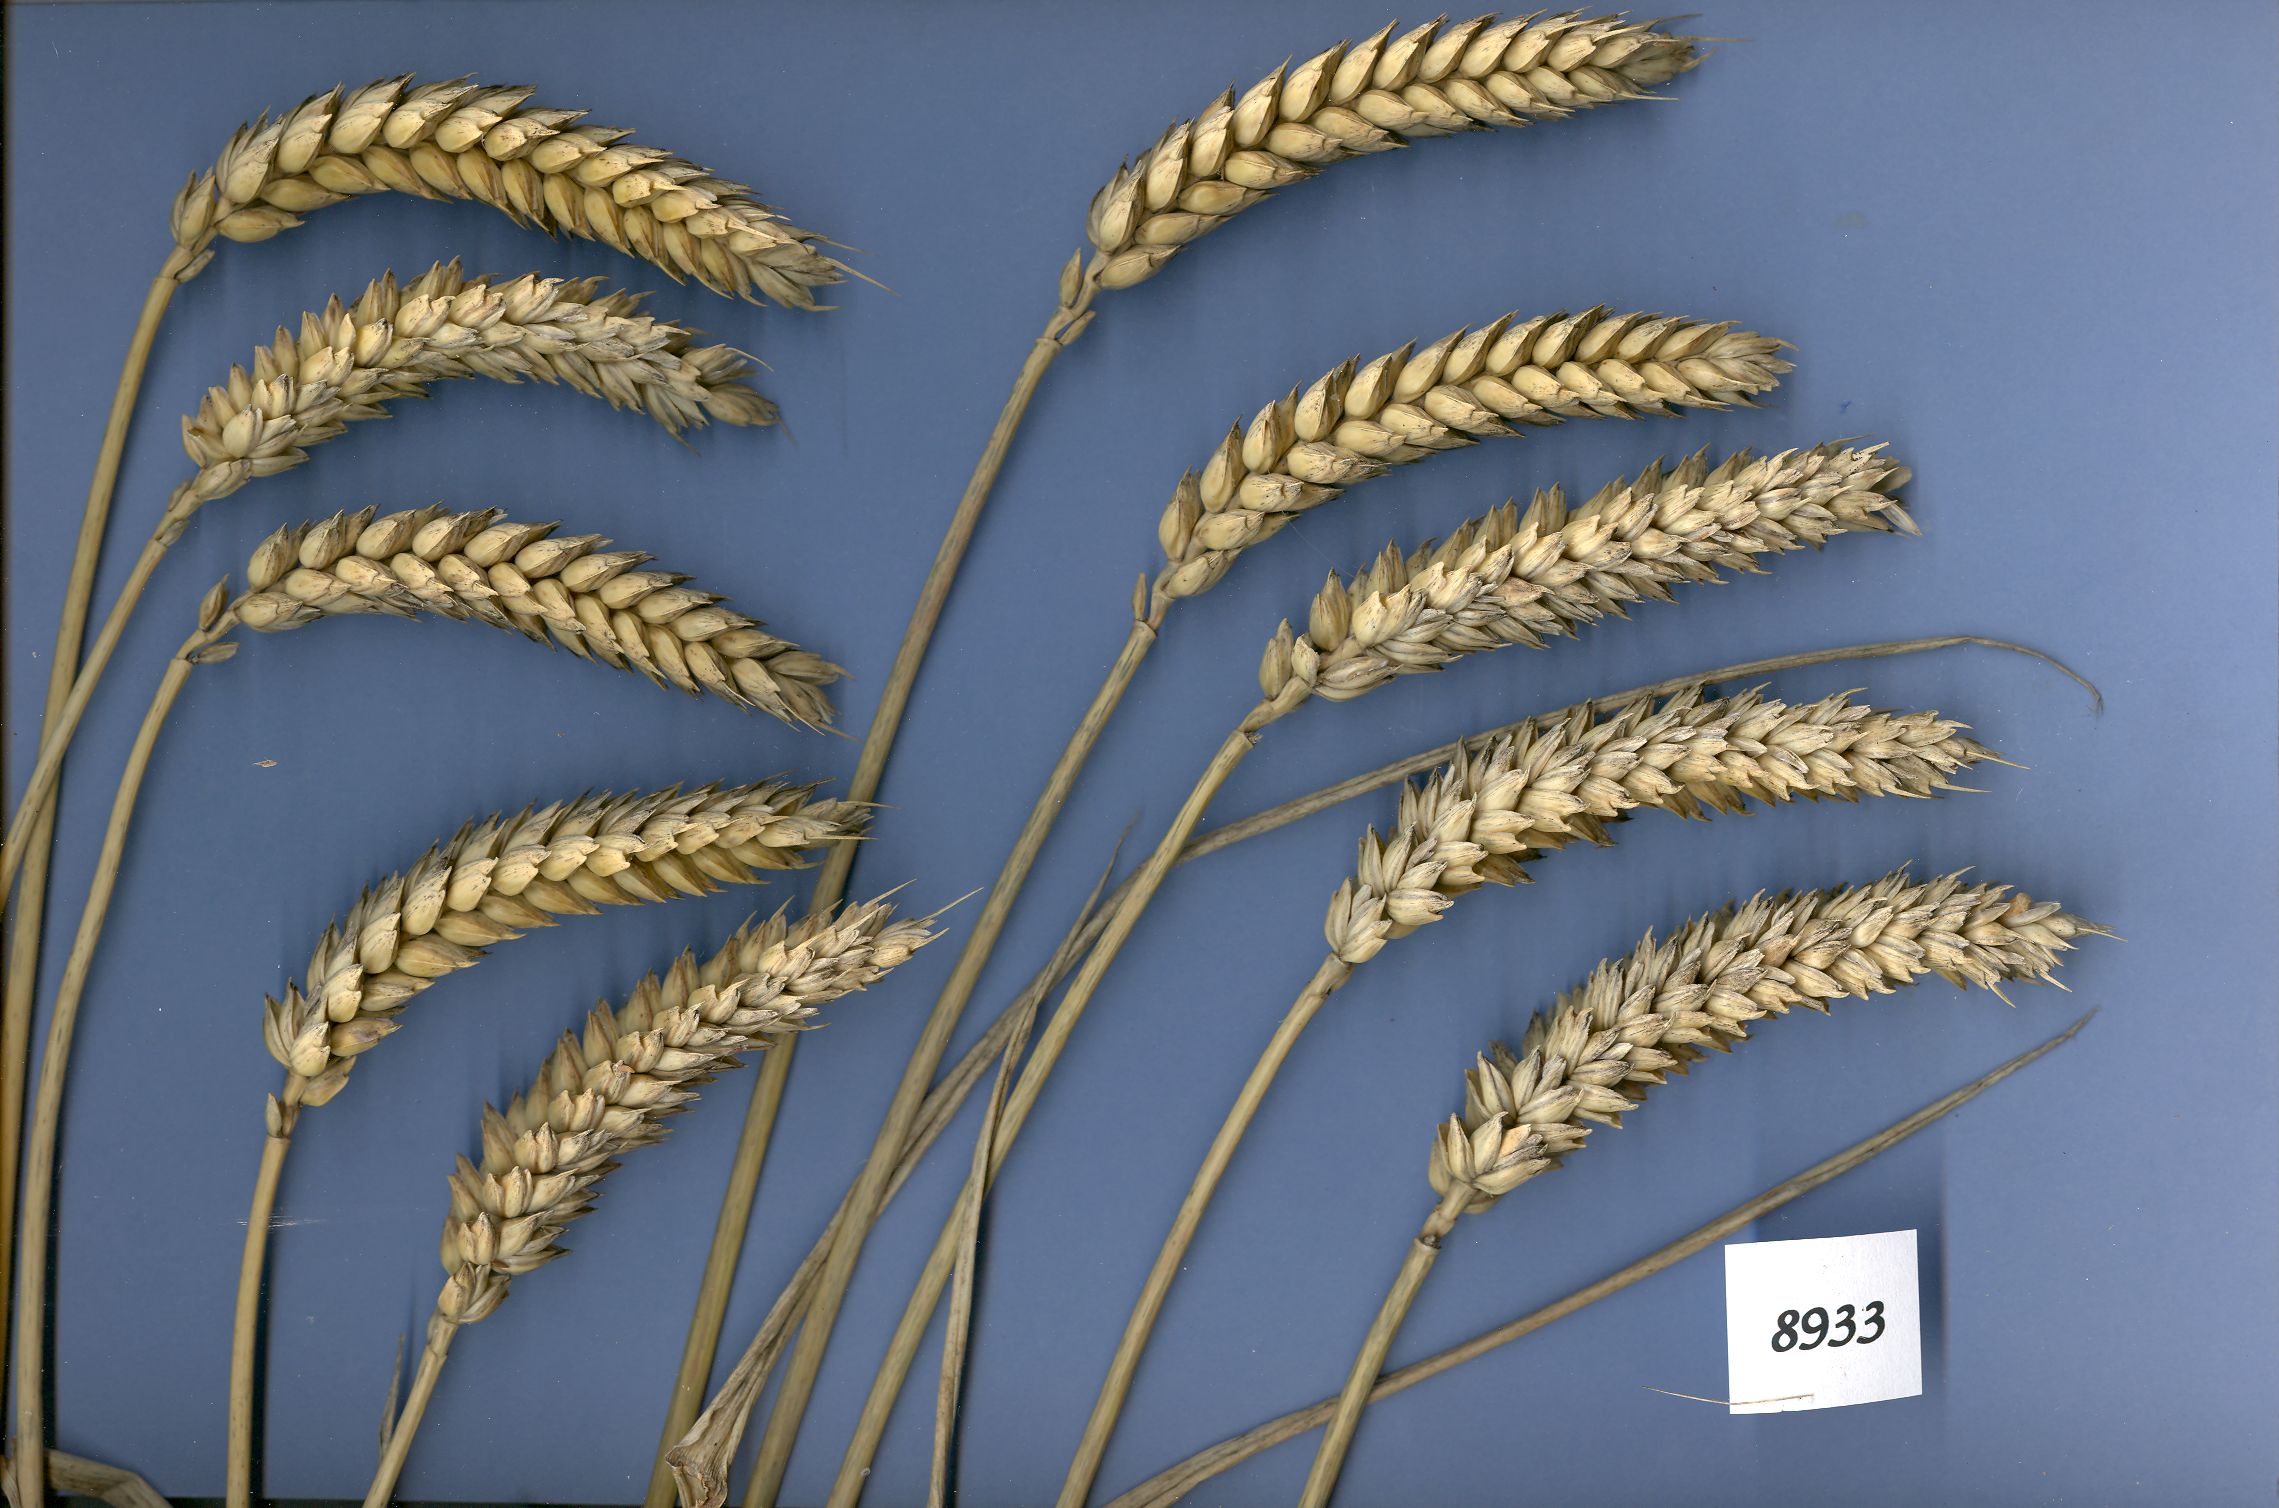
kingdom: Plantae
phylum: Tracheophyta
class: Liliopsida
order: Poales
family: Poaceae
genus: Triticum
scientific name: Triticum aestivum
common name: Common wheat
